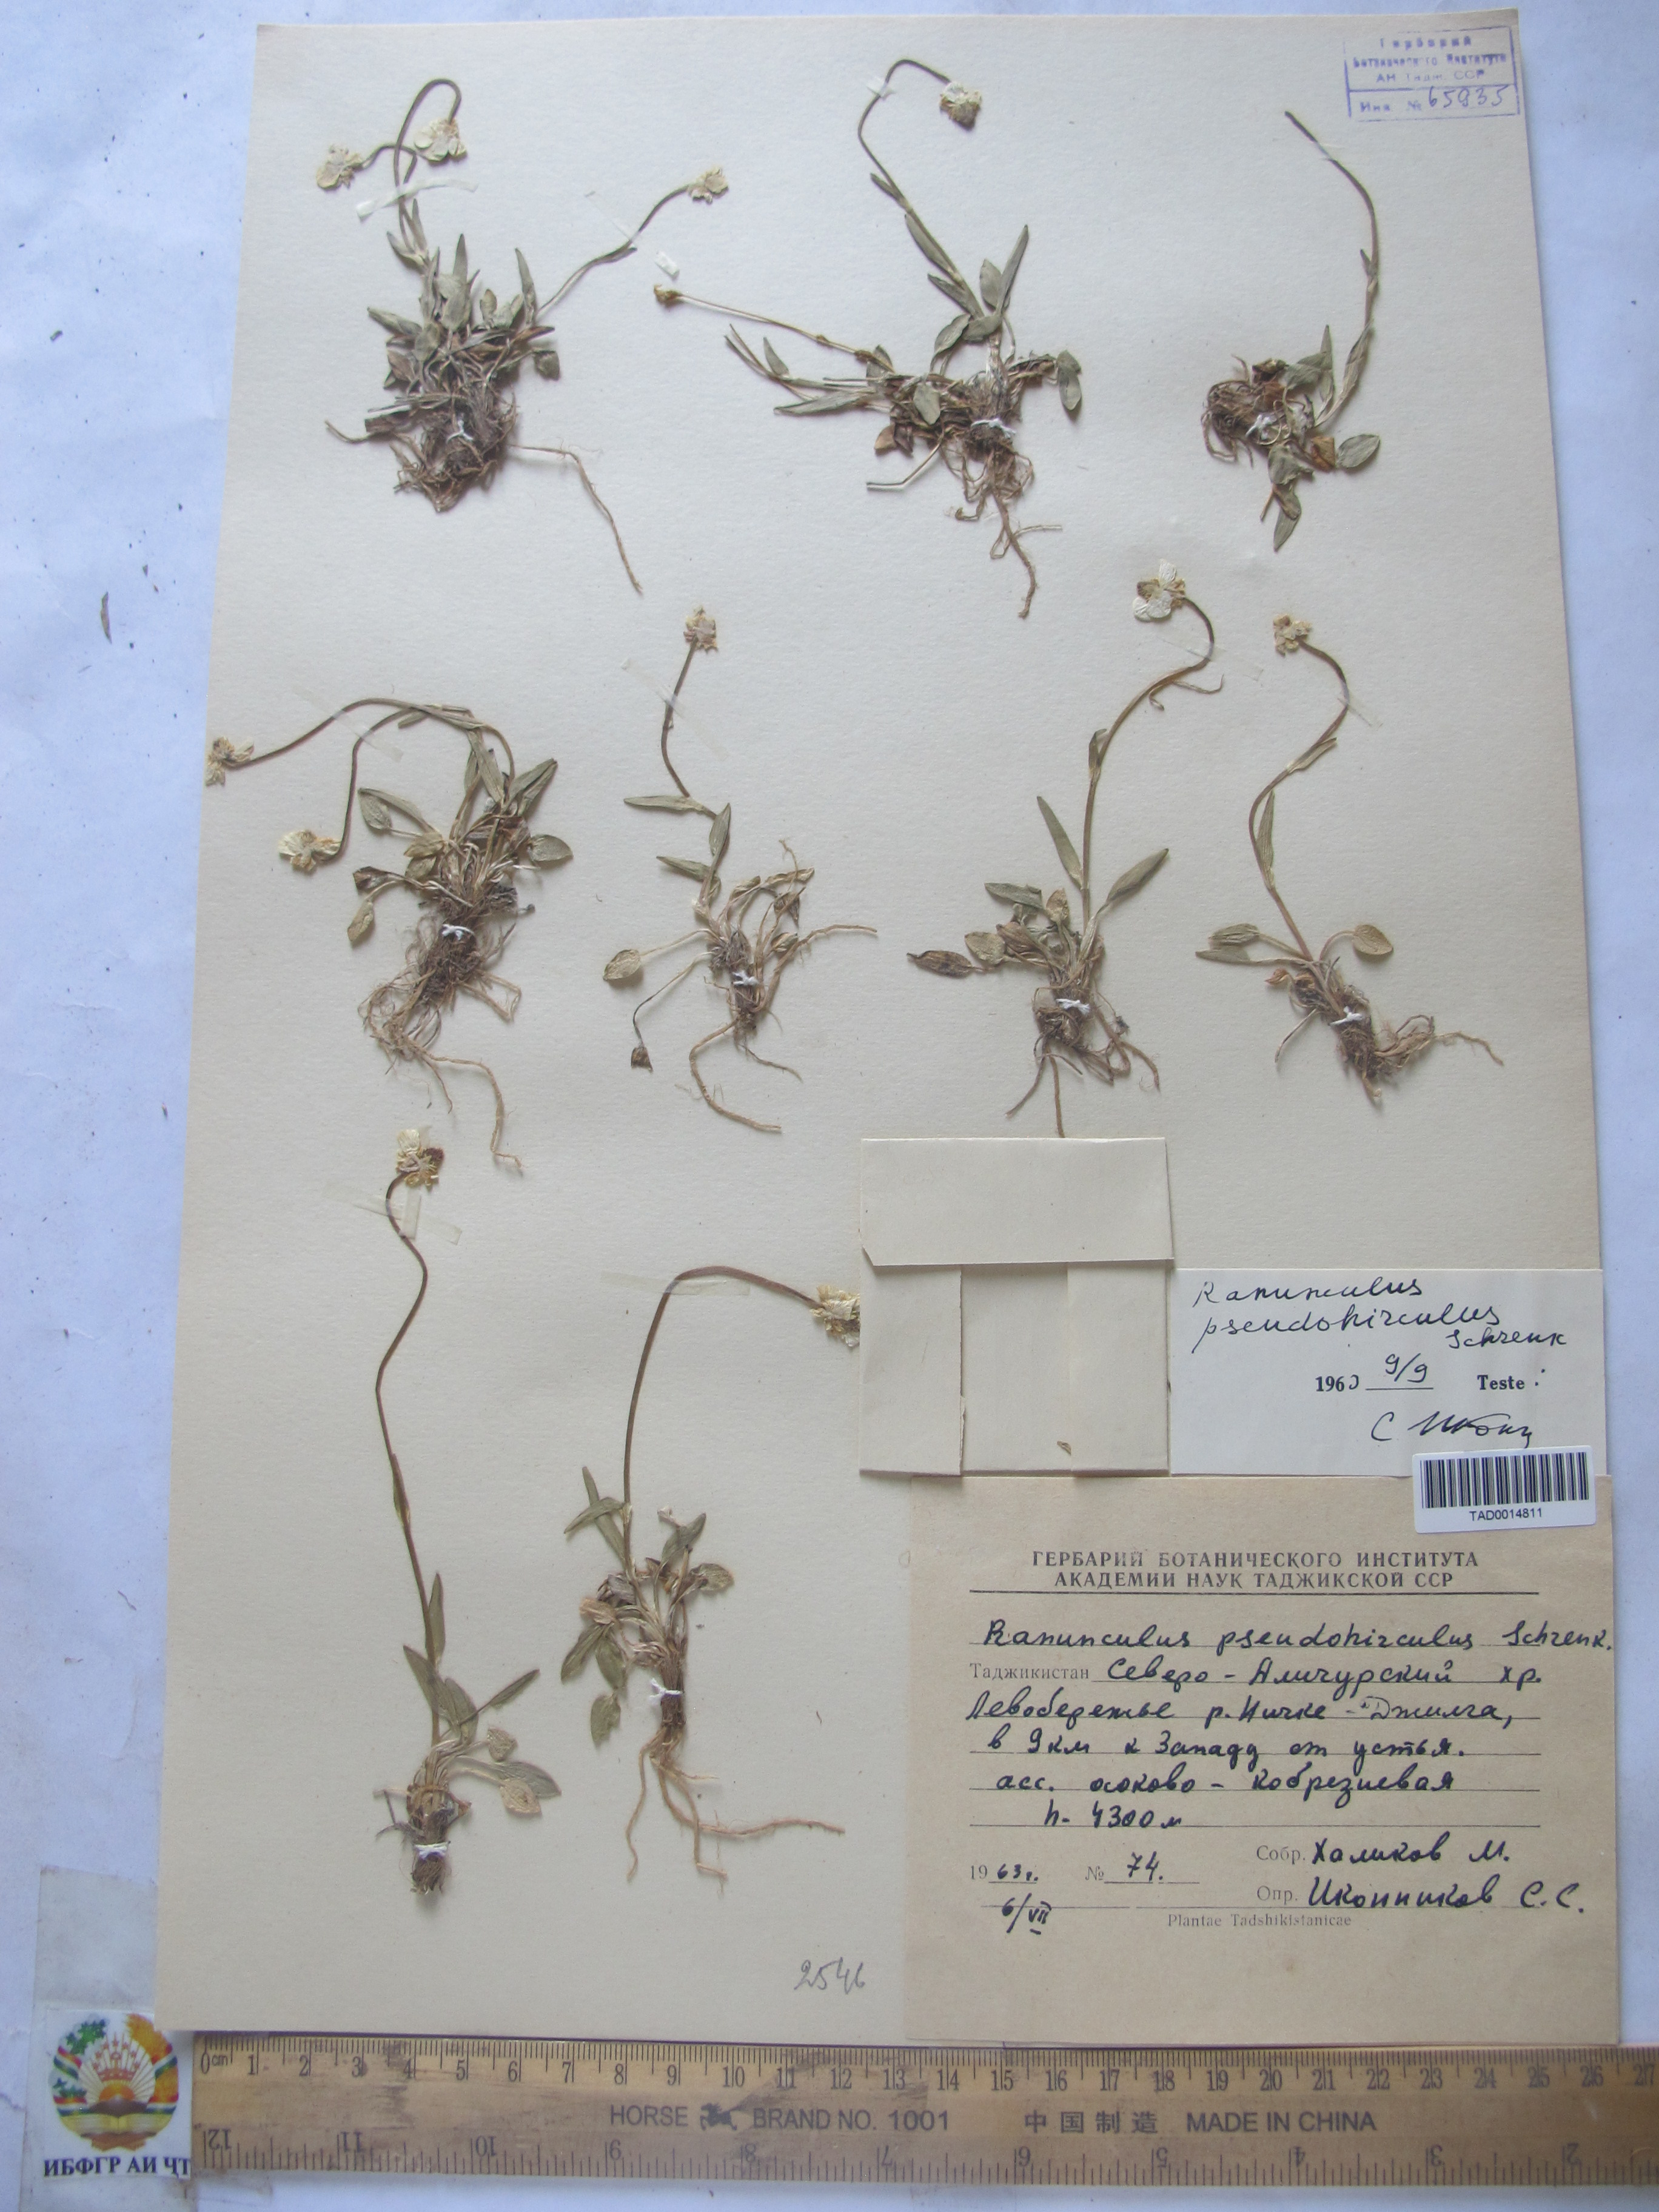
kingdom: Plantae
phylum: Tracheophyta
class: Magnoliopsida
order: Ranunculales
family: Ranunculaceae
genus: Ranunculus
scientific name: Ranunculus pseudohirculus
